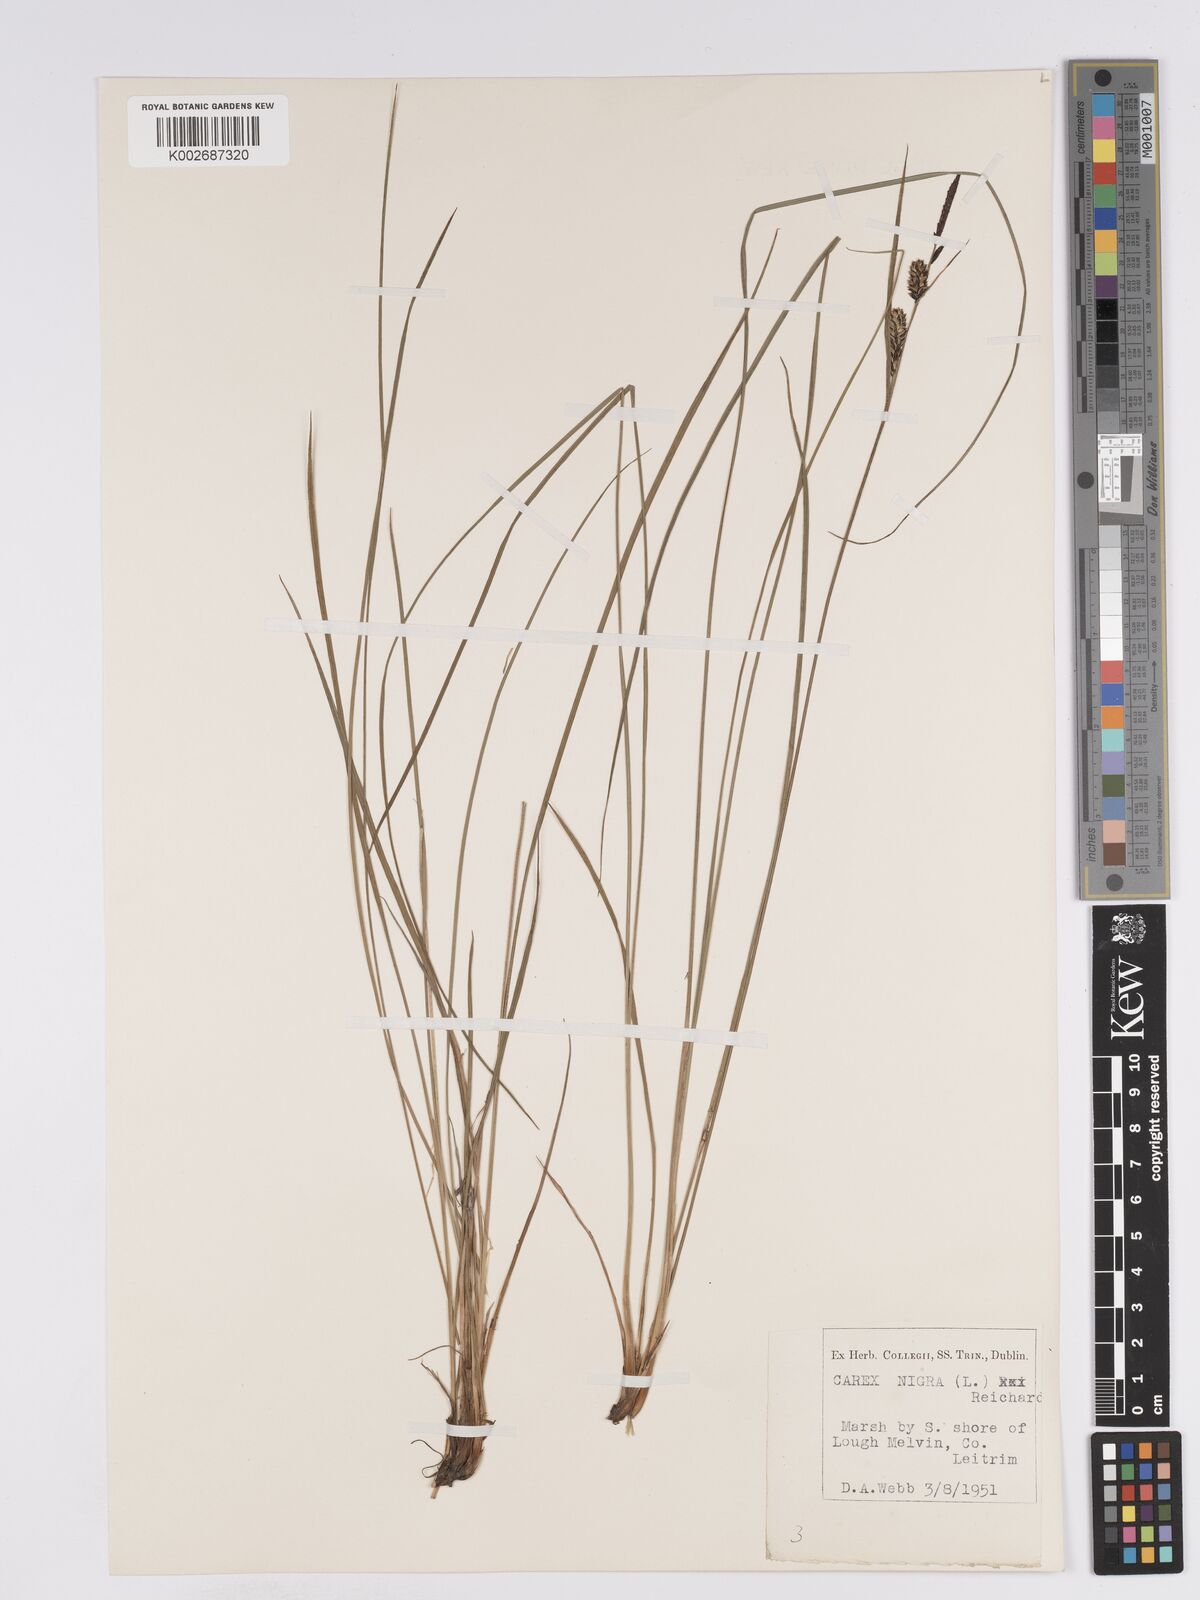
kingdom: Plantae
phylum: Tracheophyta
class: Liliopsida
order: Poales
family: Cyperaceae
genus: Carex
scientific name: Carex nigra
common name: Common sedge
